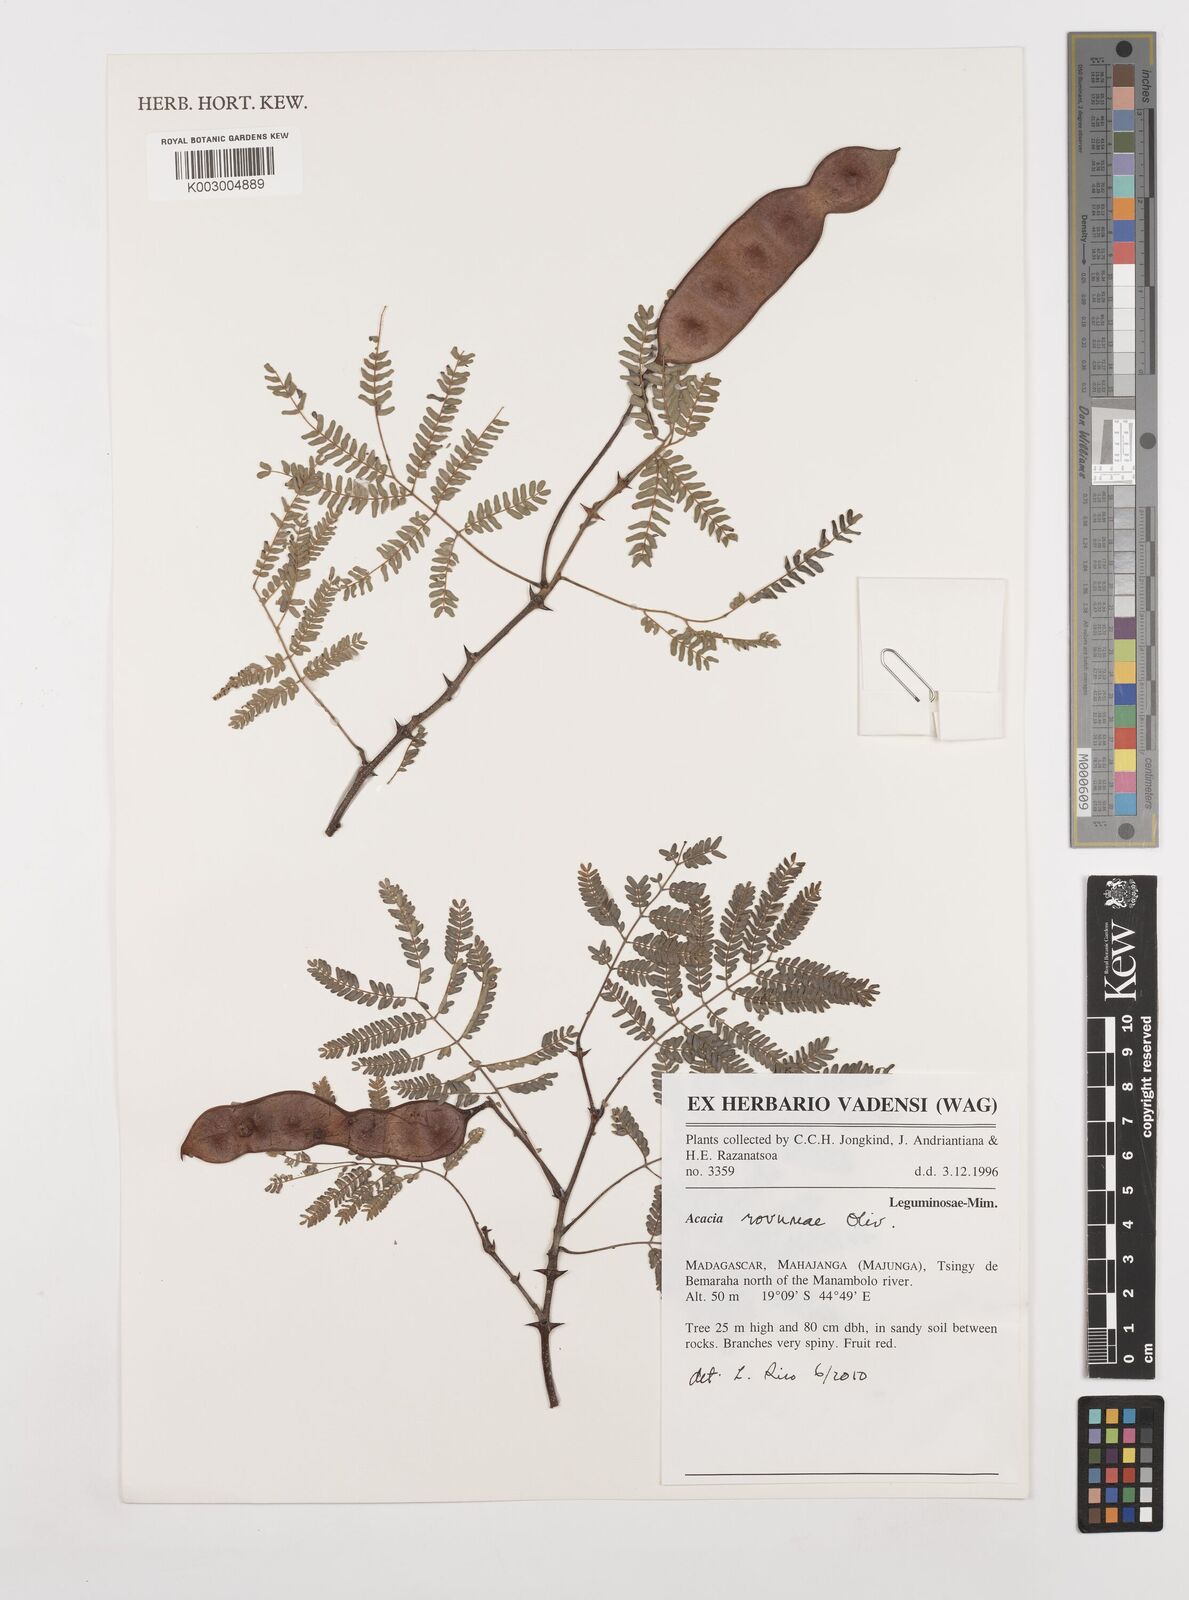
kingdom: Plantae
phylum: Tracheophyta
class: Magnoliopsida
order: Fabales
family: Fabaceae
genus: Senegalia
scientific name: Senegalia rovumae
